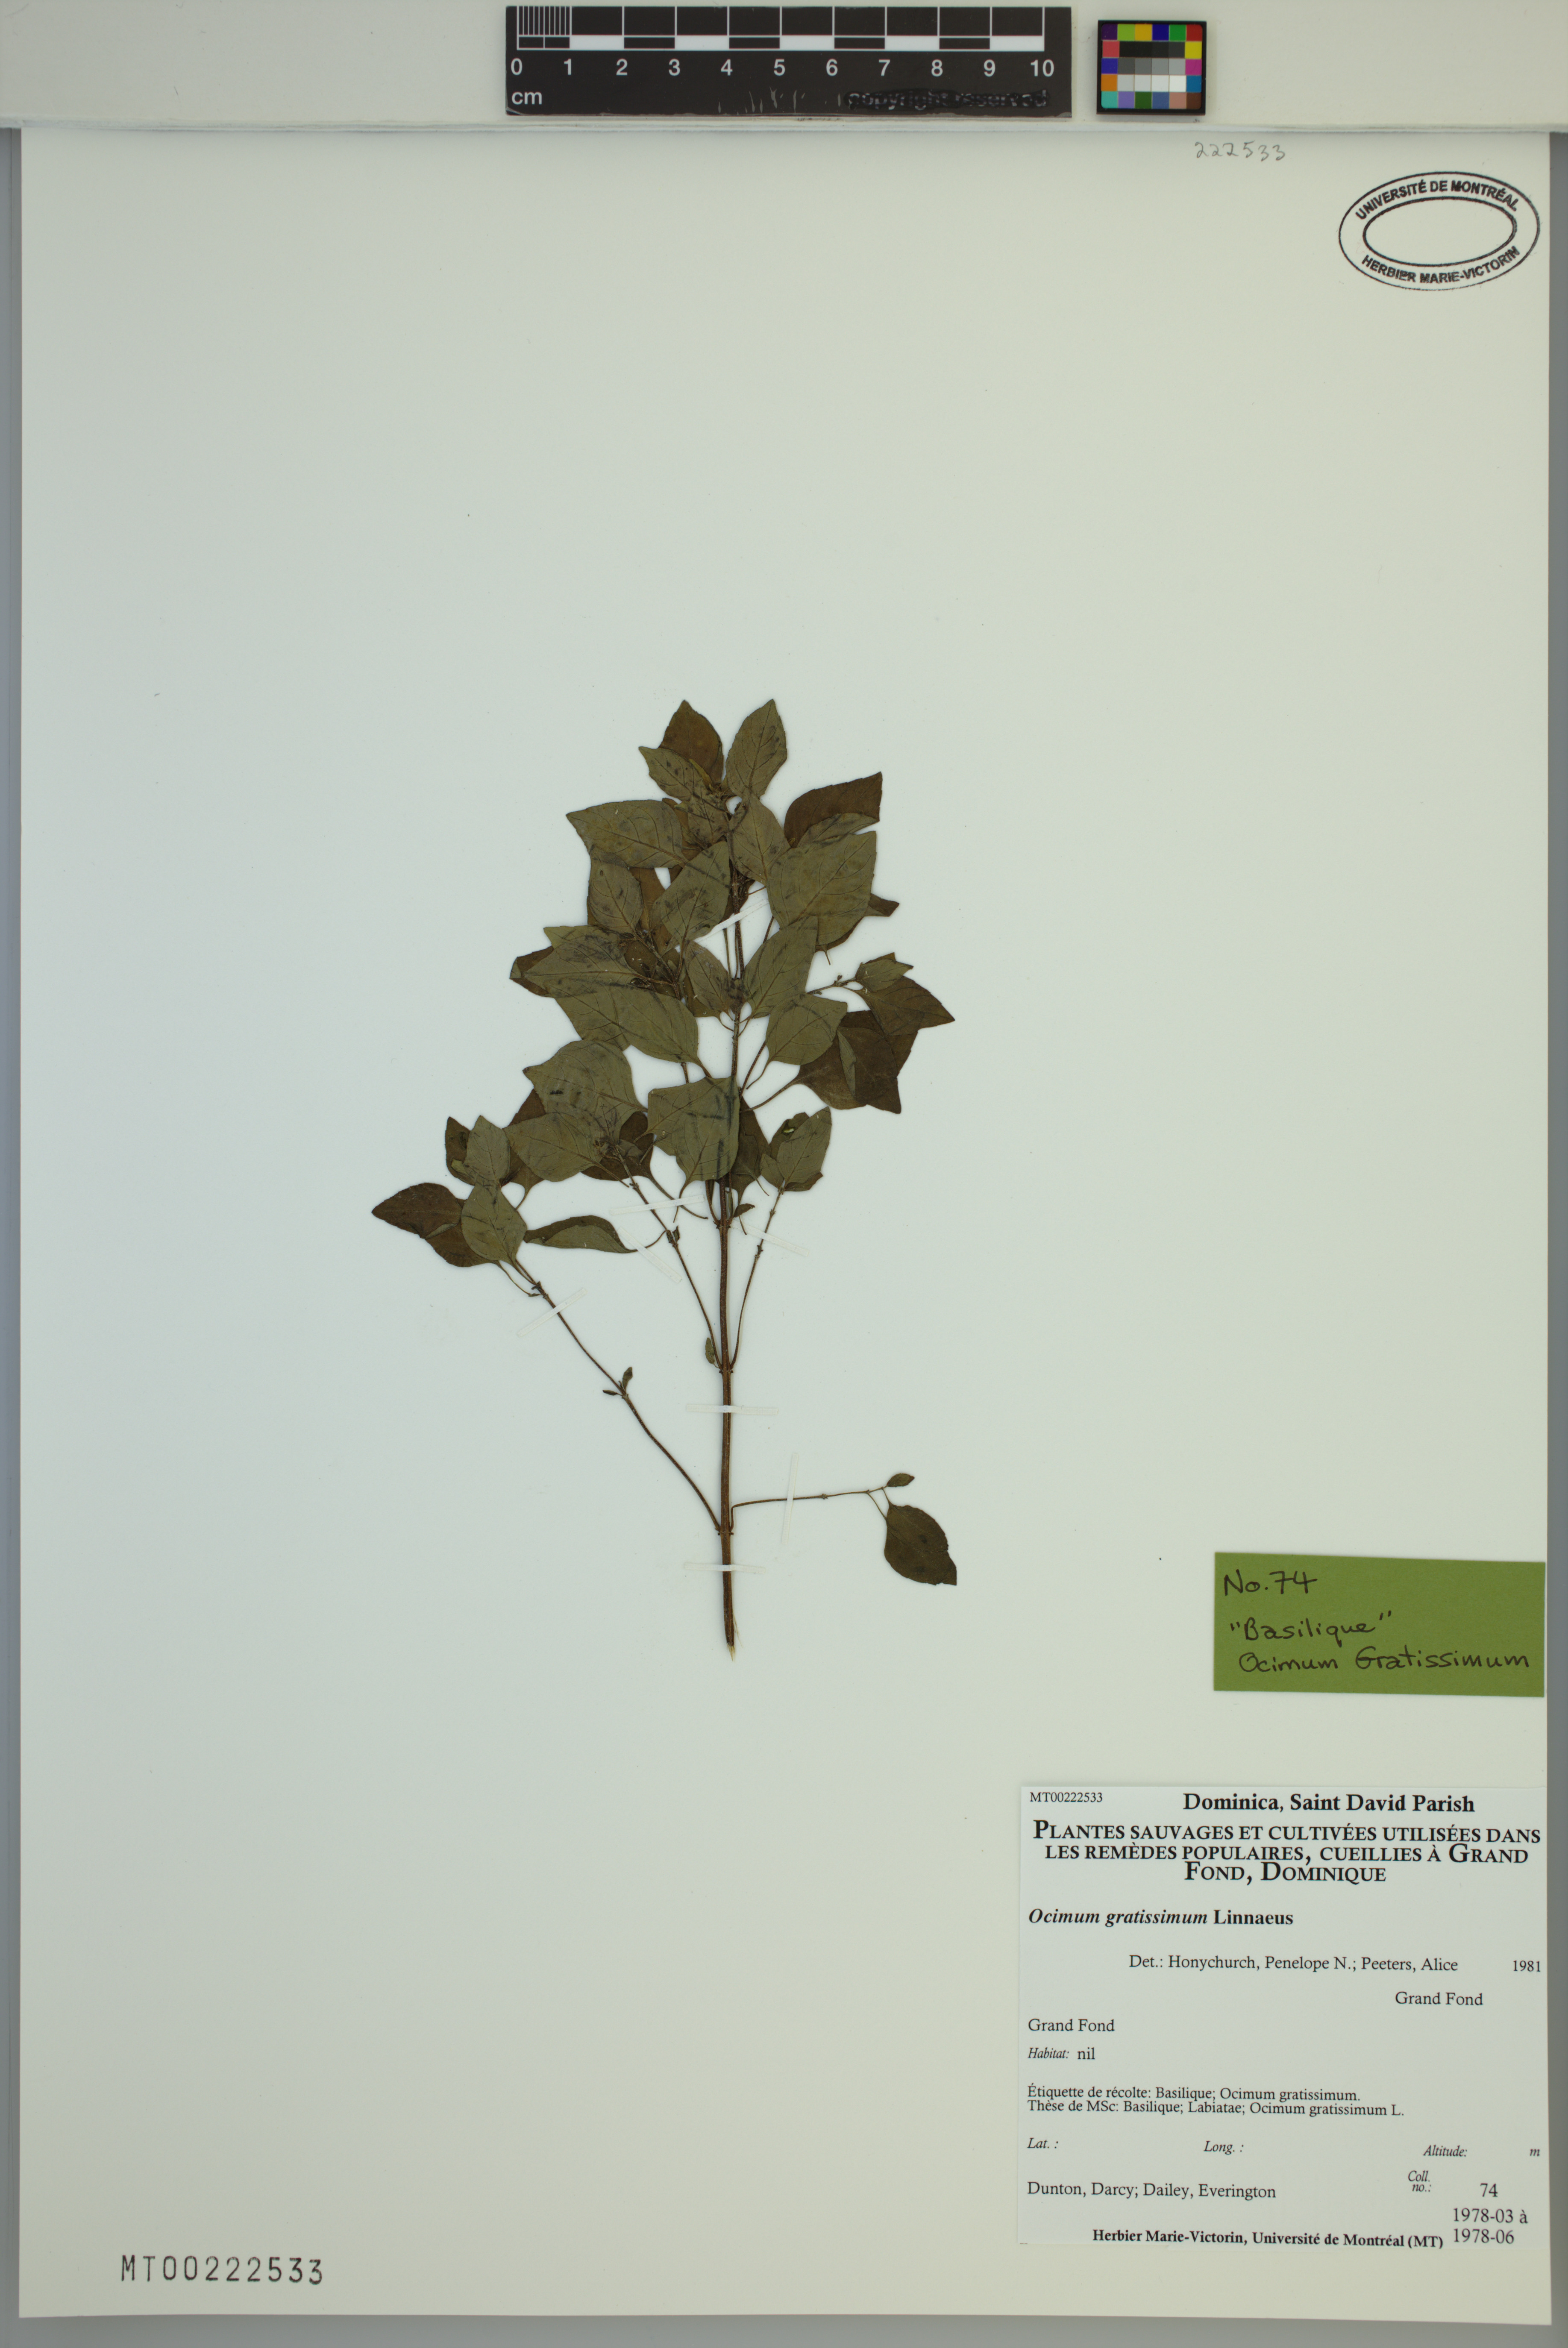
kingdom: Plantae
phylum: Tracheophyta
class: Magnoliopsida
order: Lamiales
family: Lamiaceae
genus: Ocimum
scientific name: Ocimum gratissimum
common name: African basil
